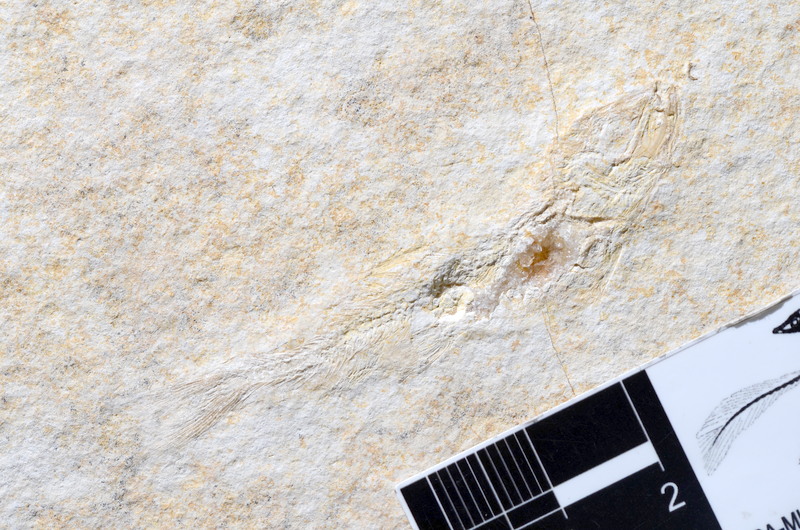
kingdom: Animalia
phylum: Chordata
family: Ascalaboidae
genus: Tharsis
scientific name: Tharsis dubius
